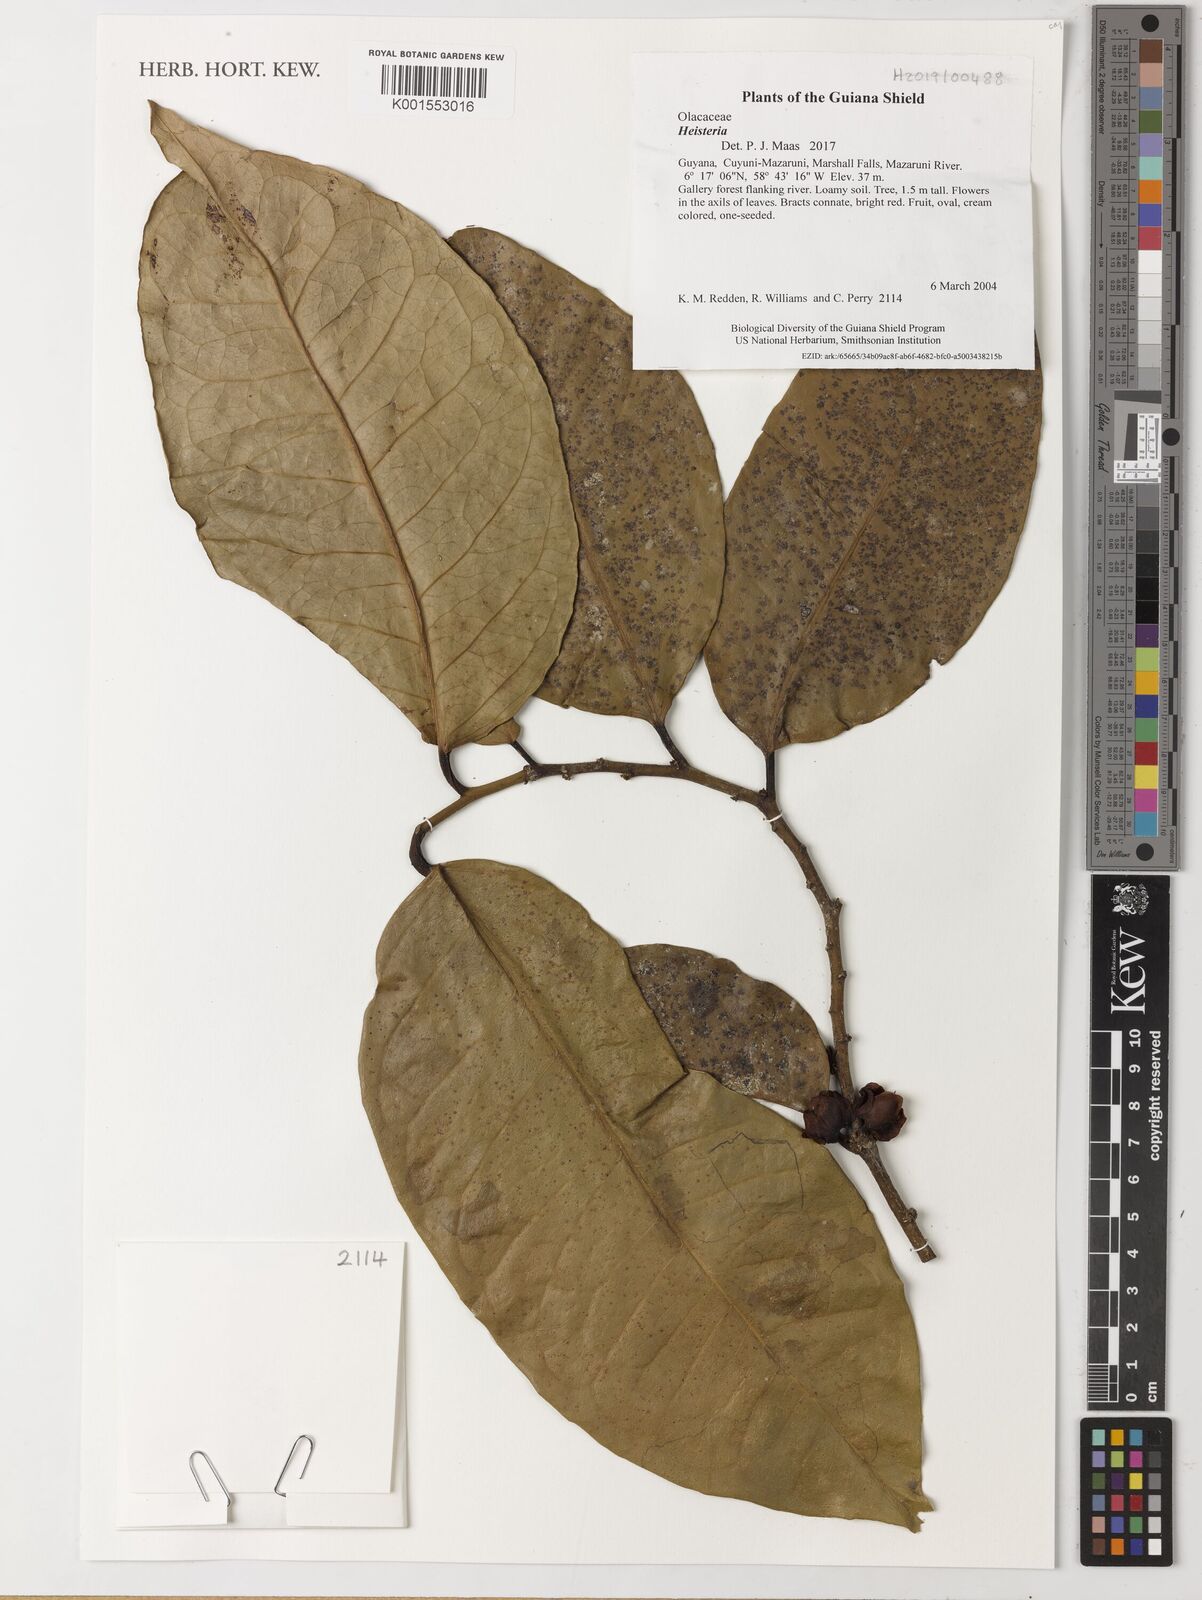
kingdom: Plantae
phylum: Tracheophyta
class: Magnoliopsida
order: Fabales
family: Polygalaceae
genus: Heistera
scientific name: Heistera
